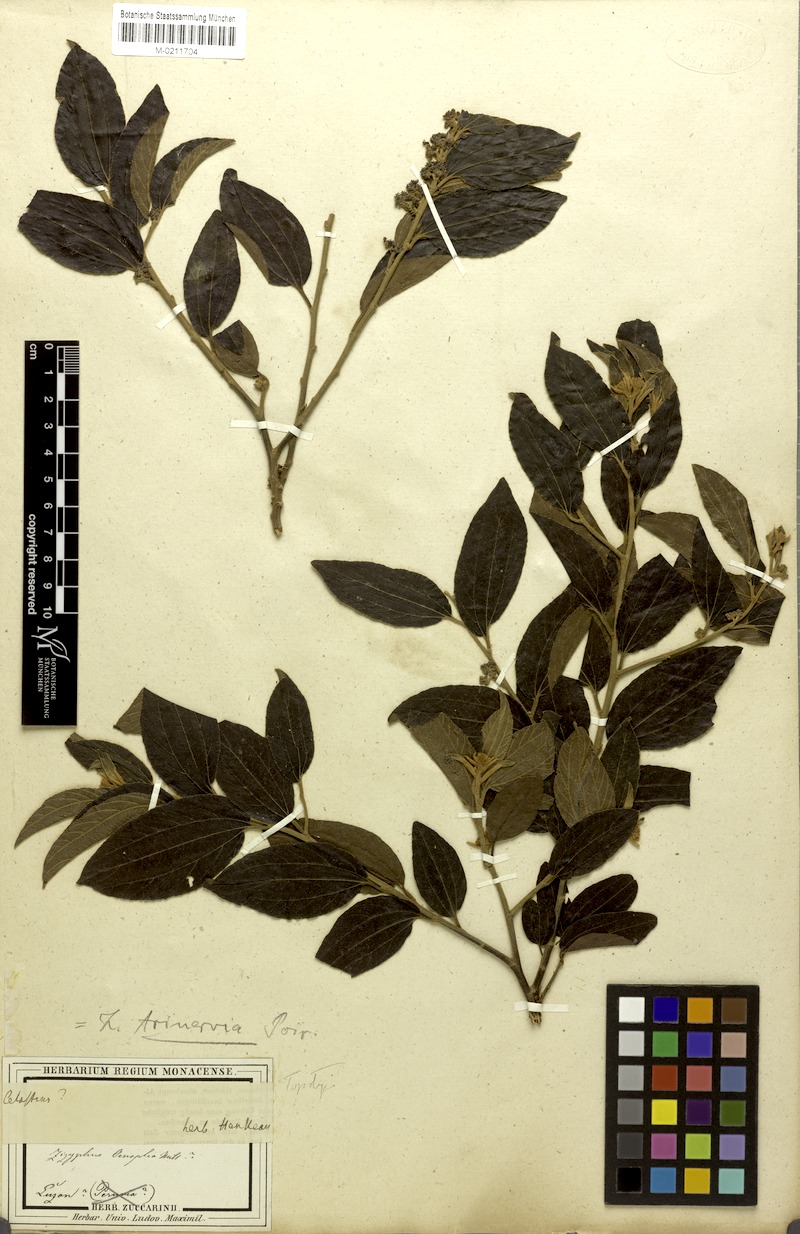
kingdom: Plantae
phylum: Tracheophyta
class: Magnoliopsida
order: Rosales
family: Rhamnaceae
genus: Ziziphus
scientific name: Ziziphus trinervis
